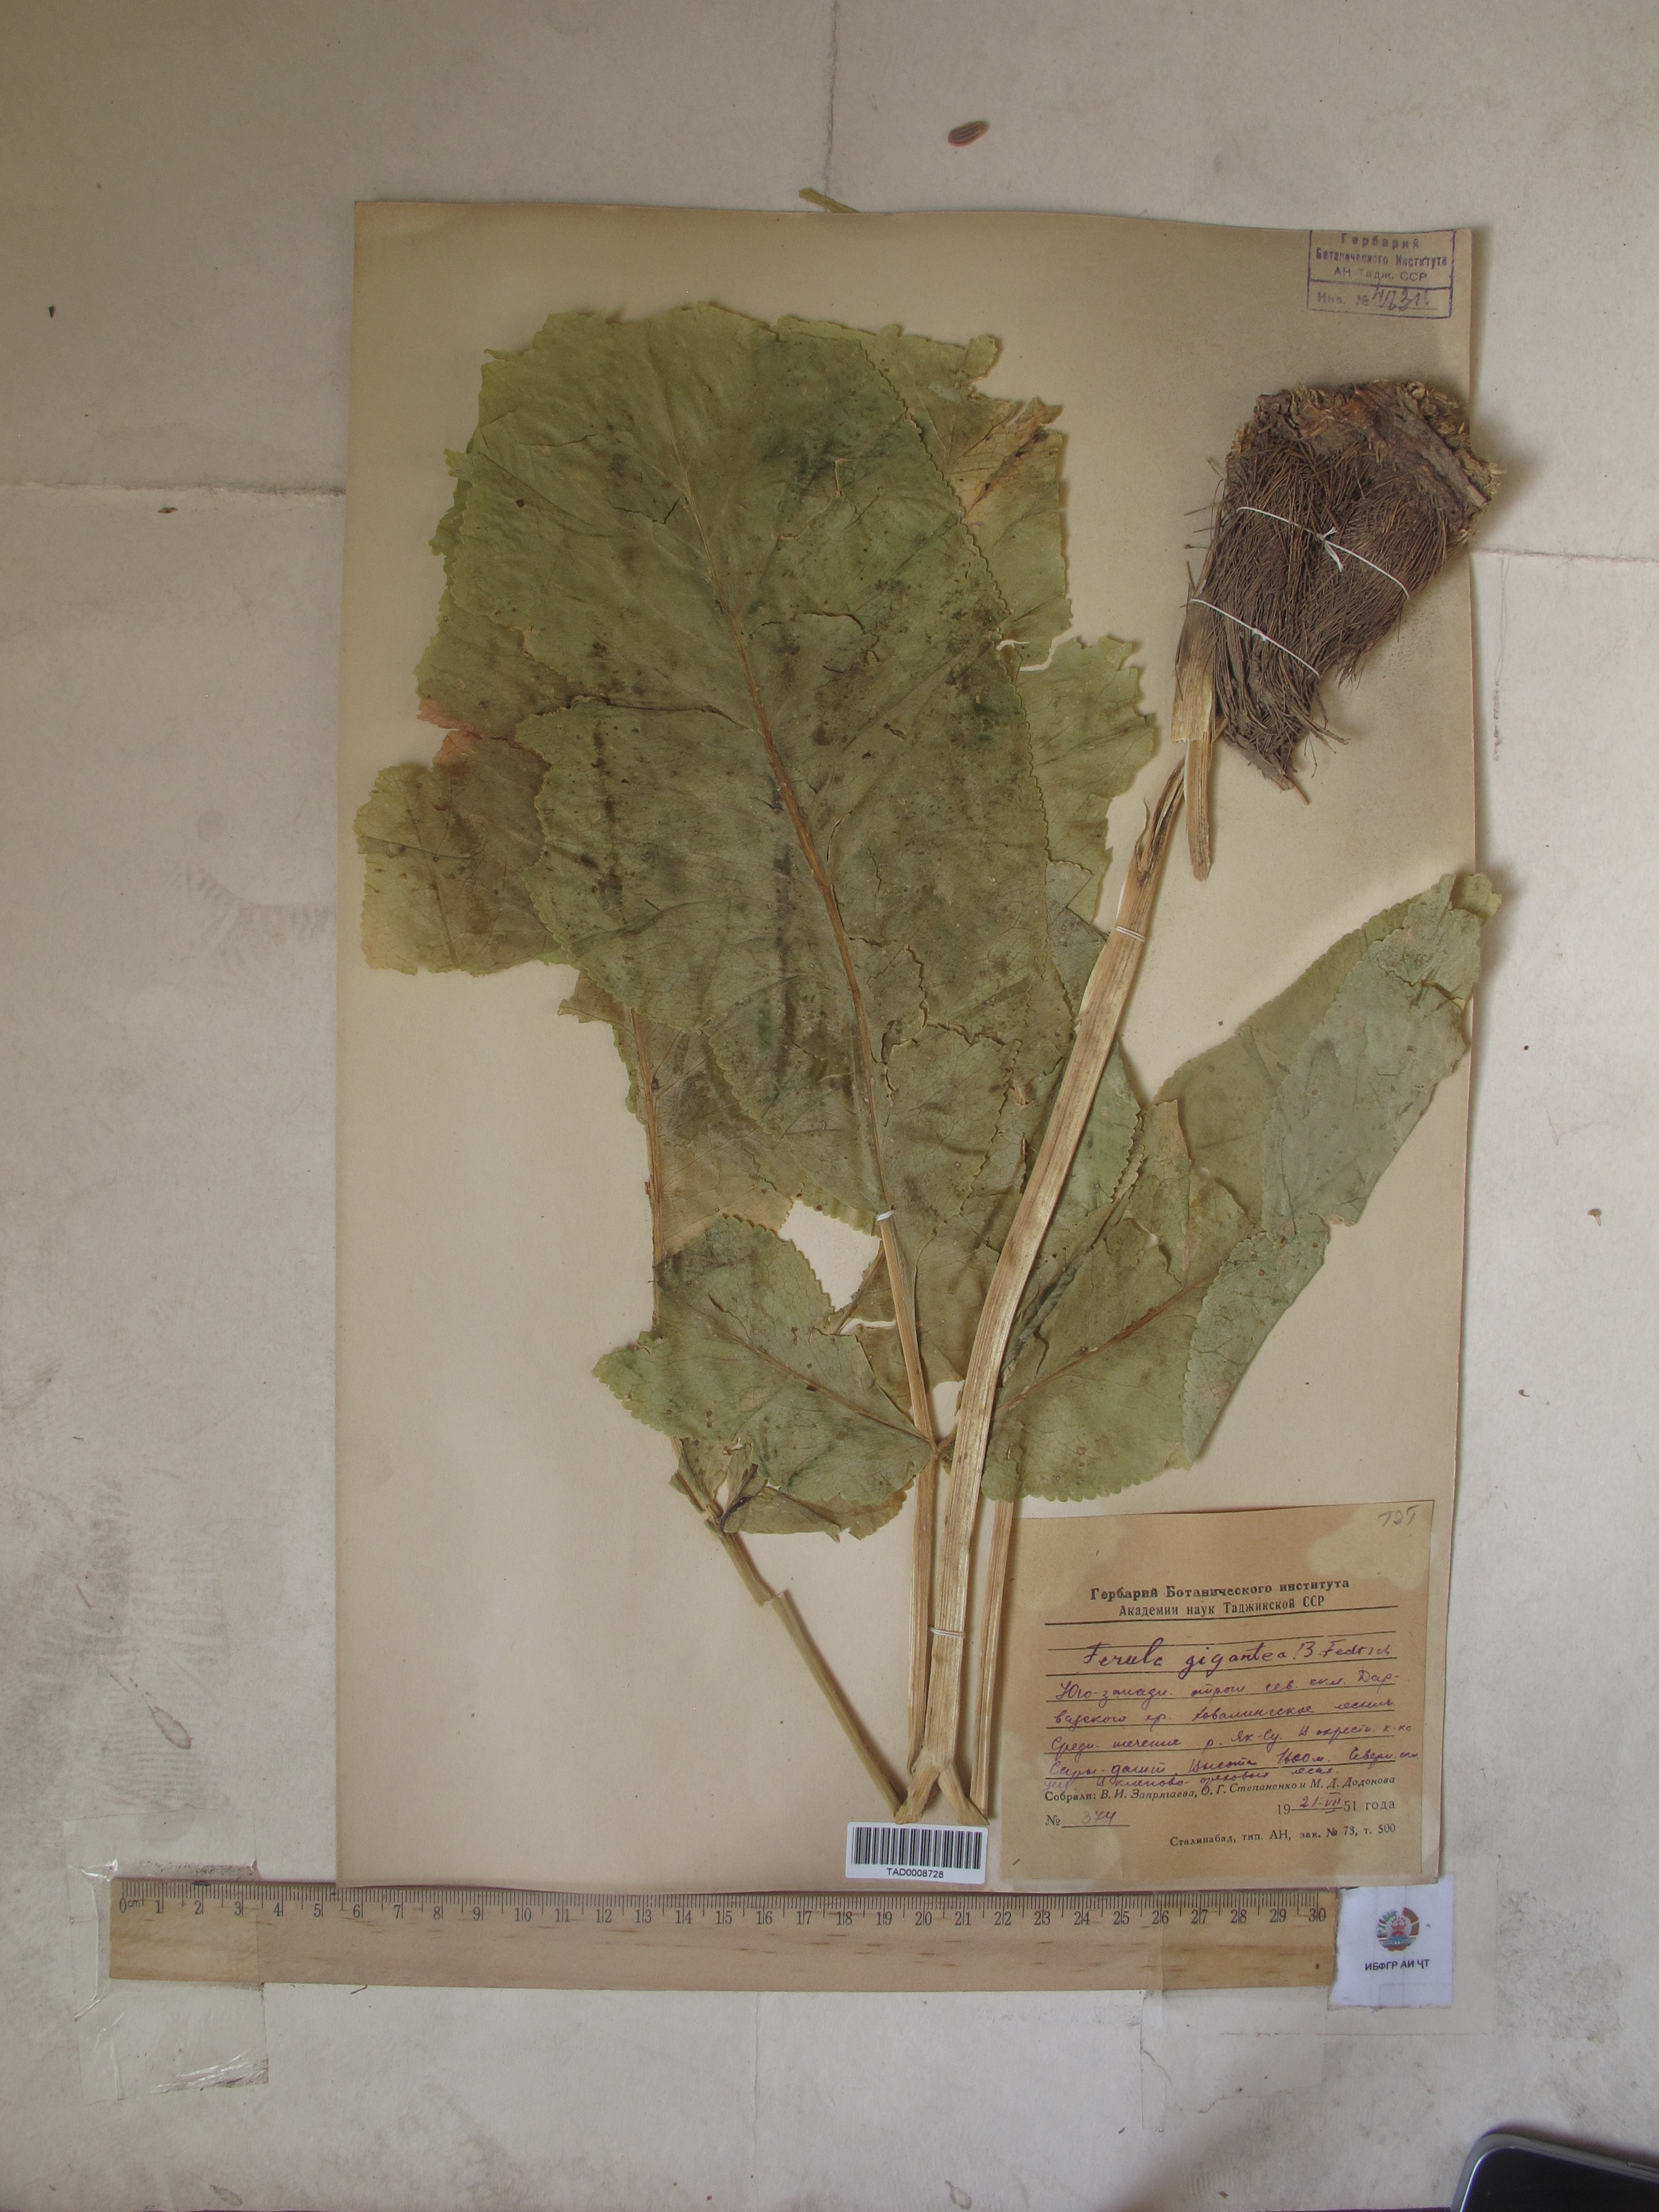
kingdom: Plantae
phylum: Tracheophyta
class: Magnoliopsida
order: Apiales
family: Apiaceae
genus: Ferula
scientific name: Ferula gigantea
